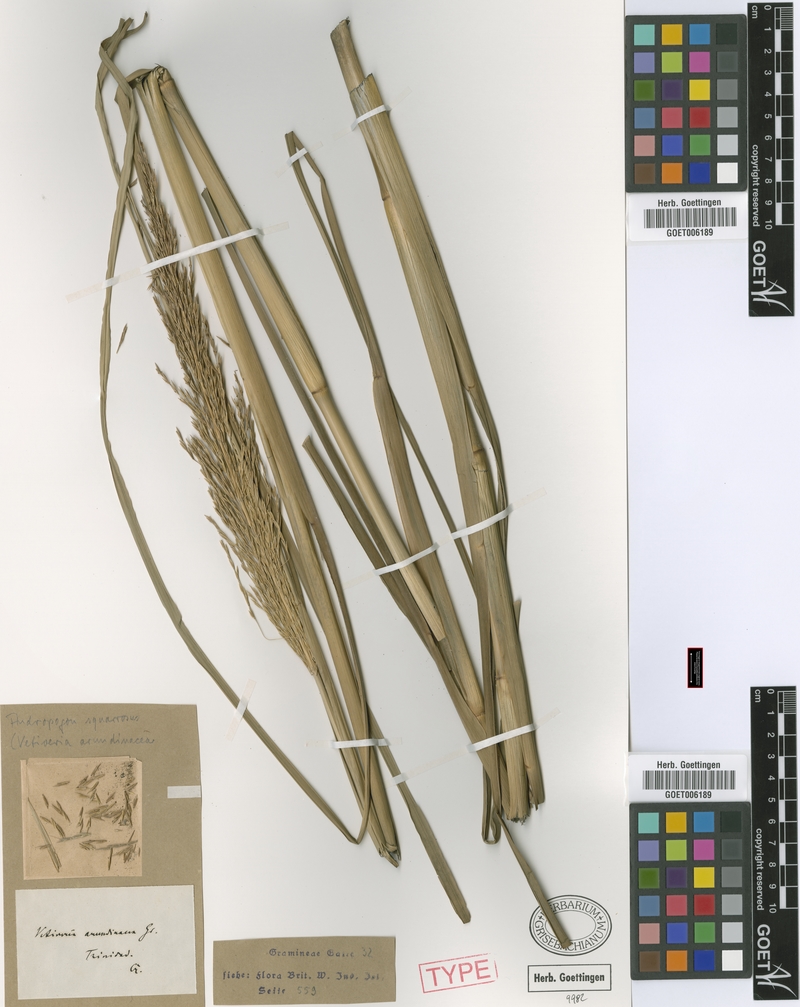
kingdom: Plantae
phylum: Tracheophyta
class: Liliopsida
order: Poales
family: Poaceae
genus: Chrysopogon
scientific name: Chrysopogon zizanioides
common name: False beardgrass
